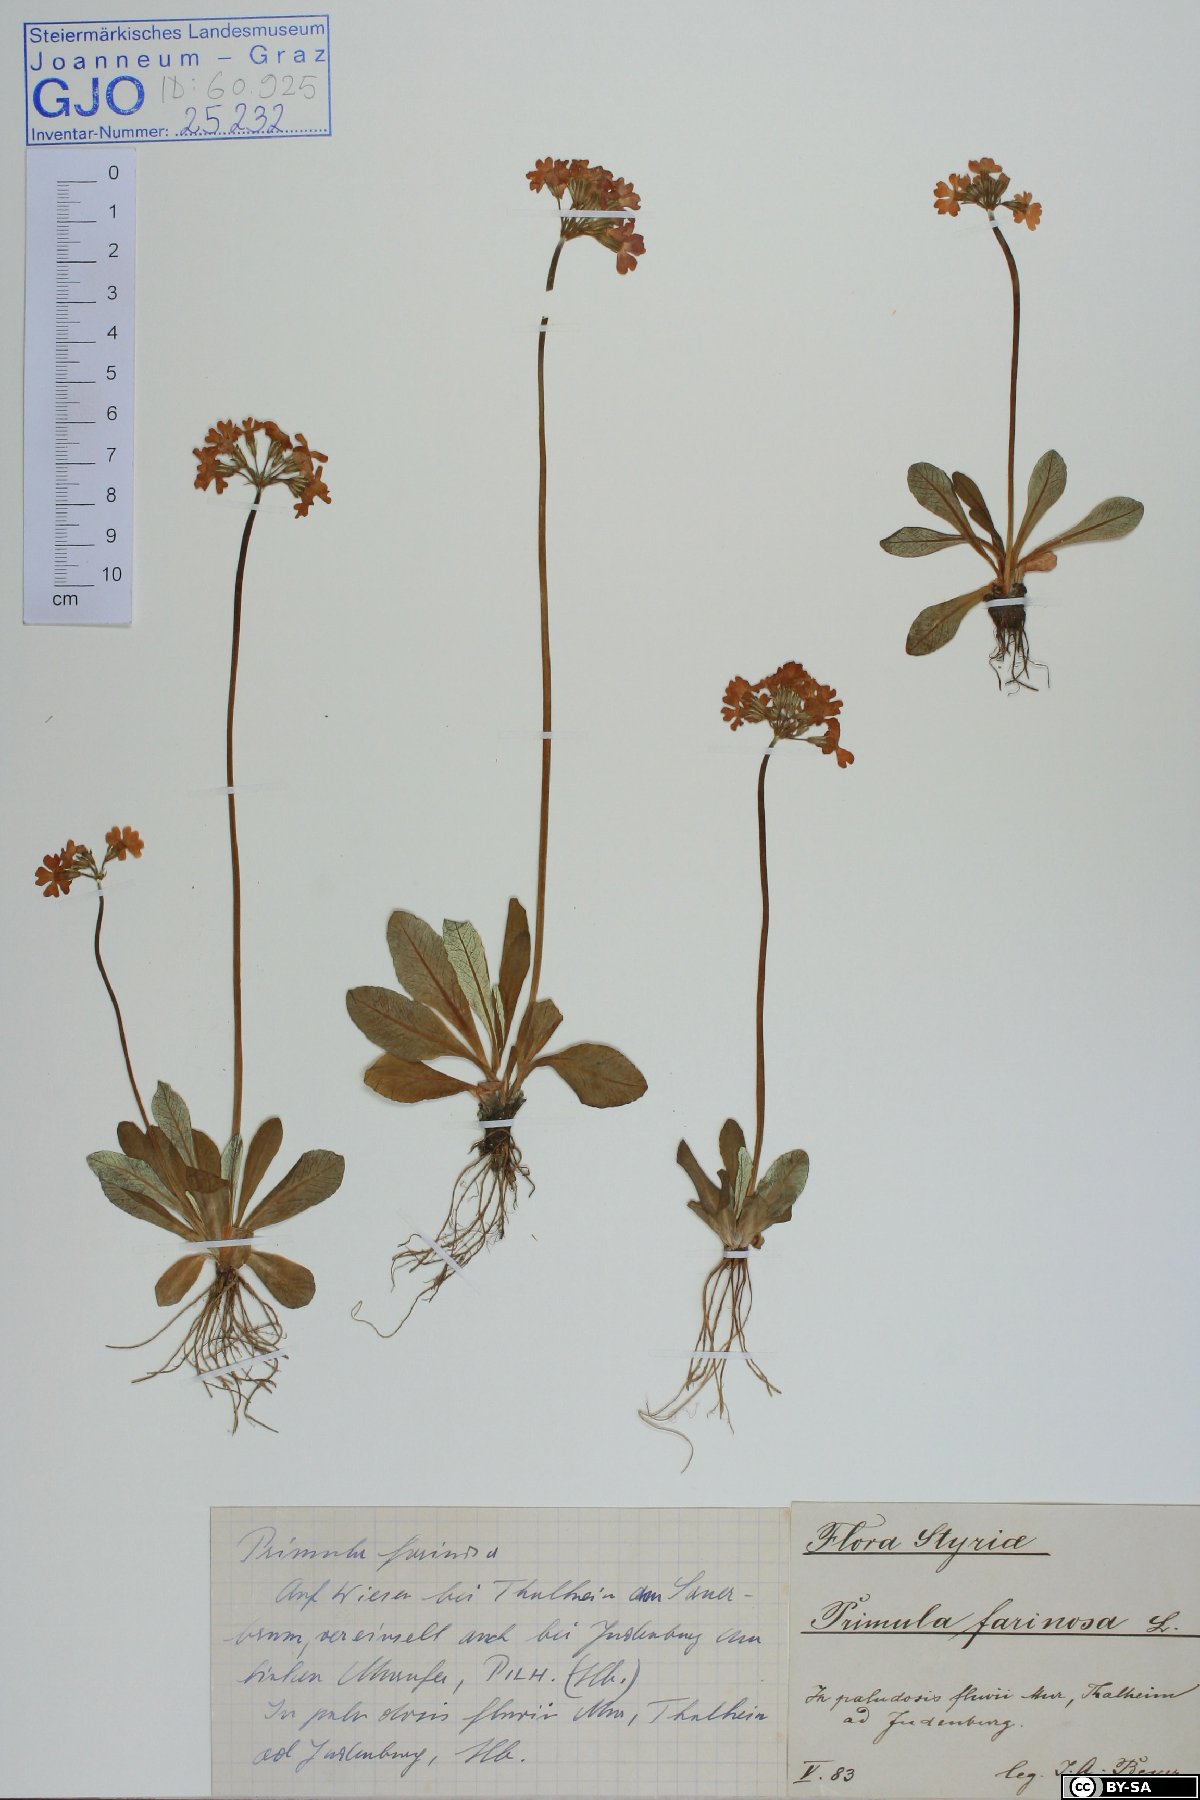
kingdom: Plantae
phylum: Tracheophyta
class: Magnoliopsida
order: Ericales
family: Primulaceae
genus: Primula
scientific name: Primula farinosa
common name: Bird's-eye primrose
